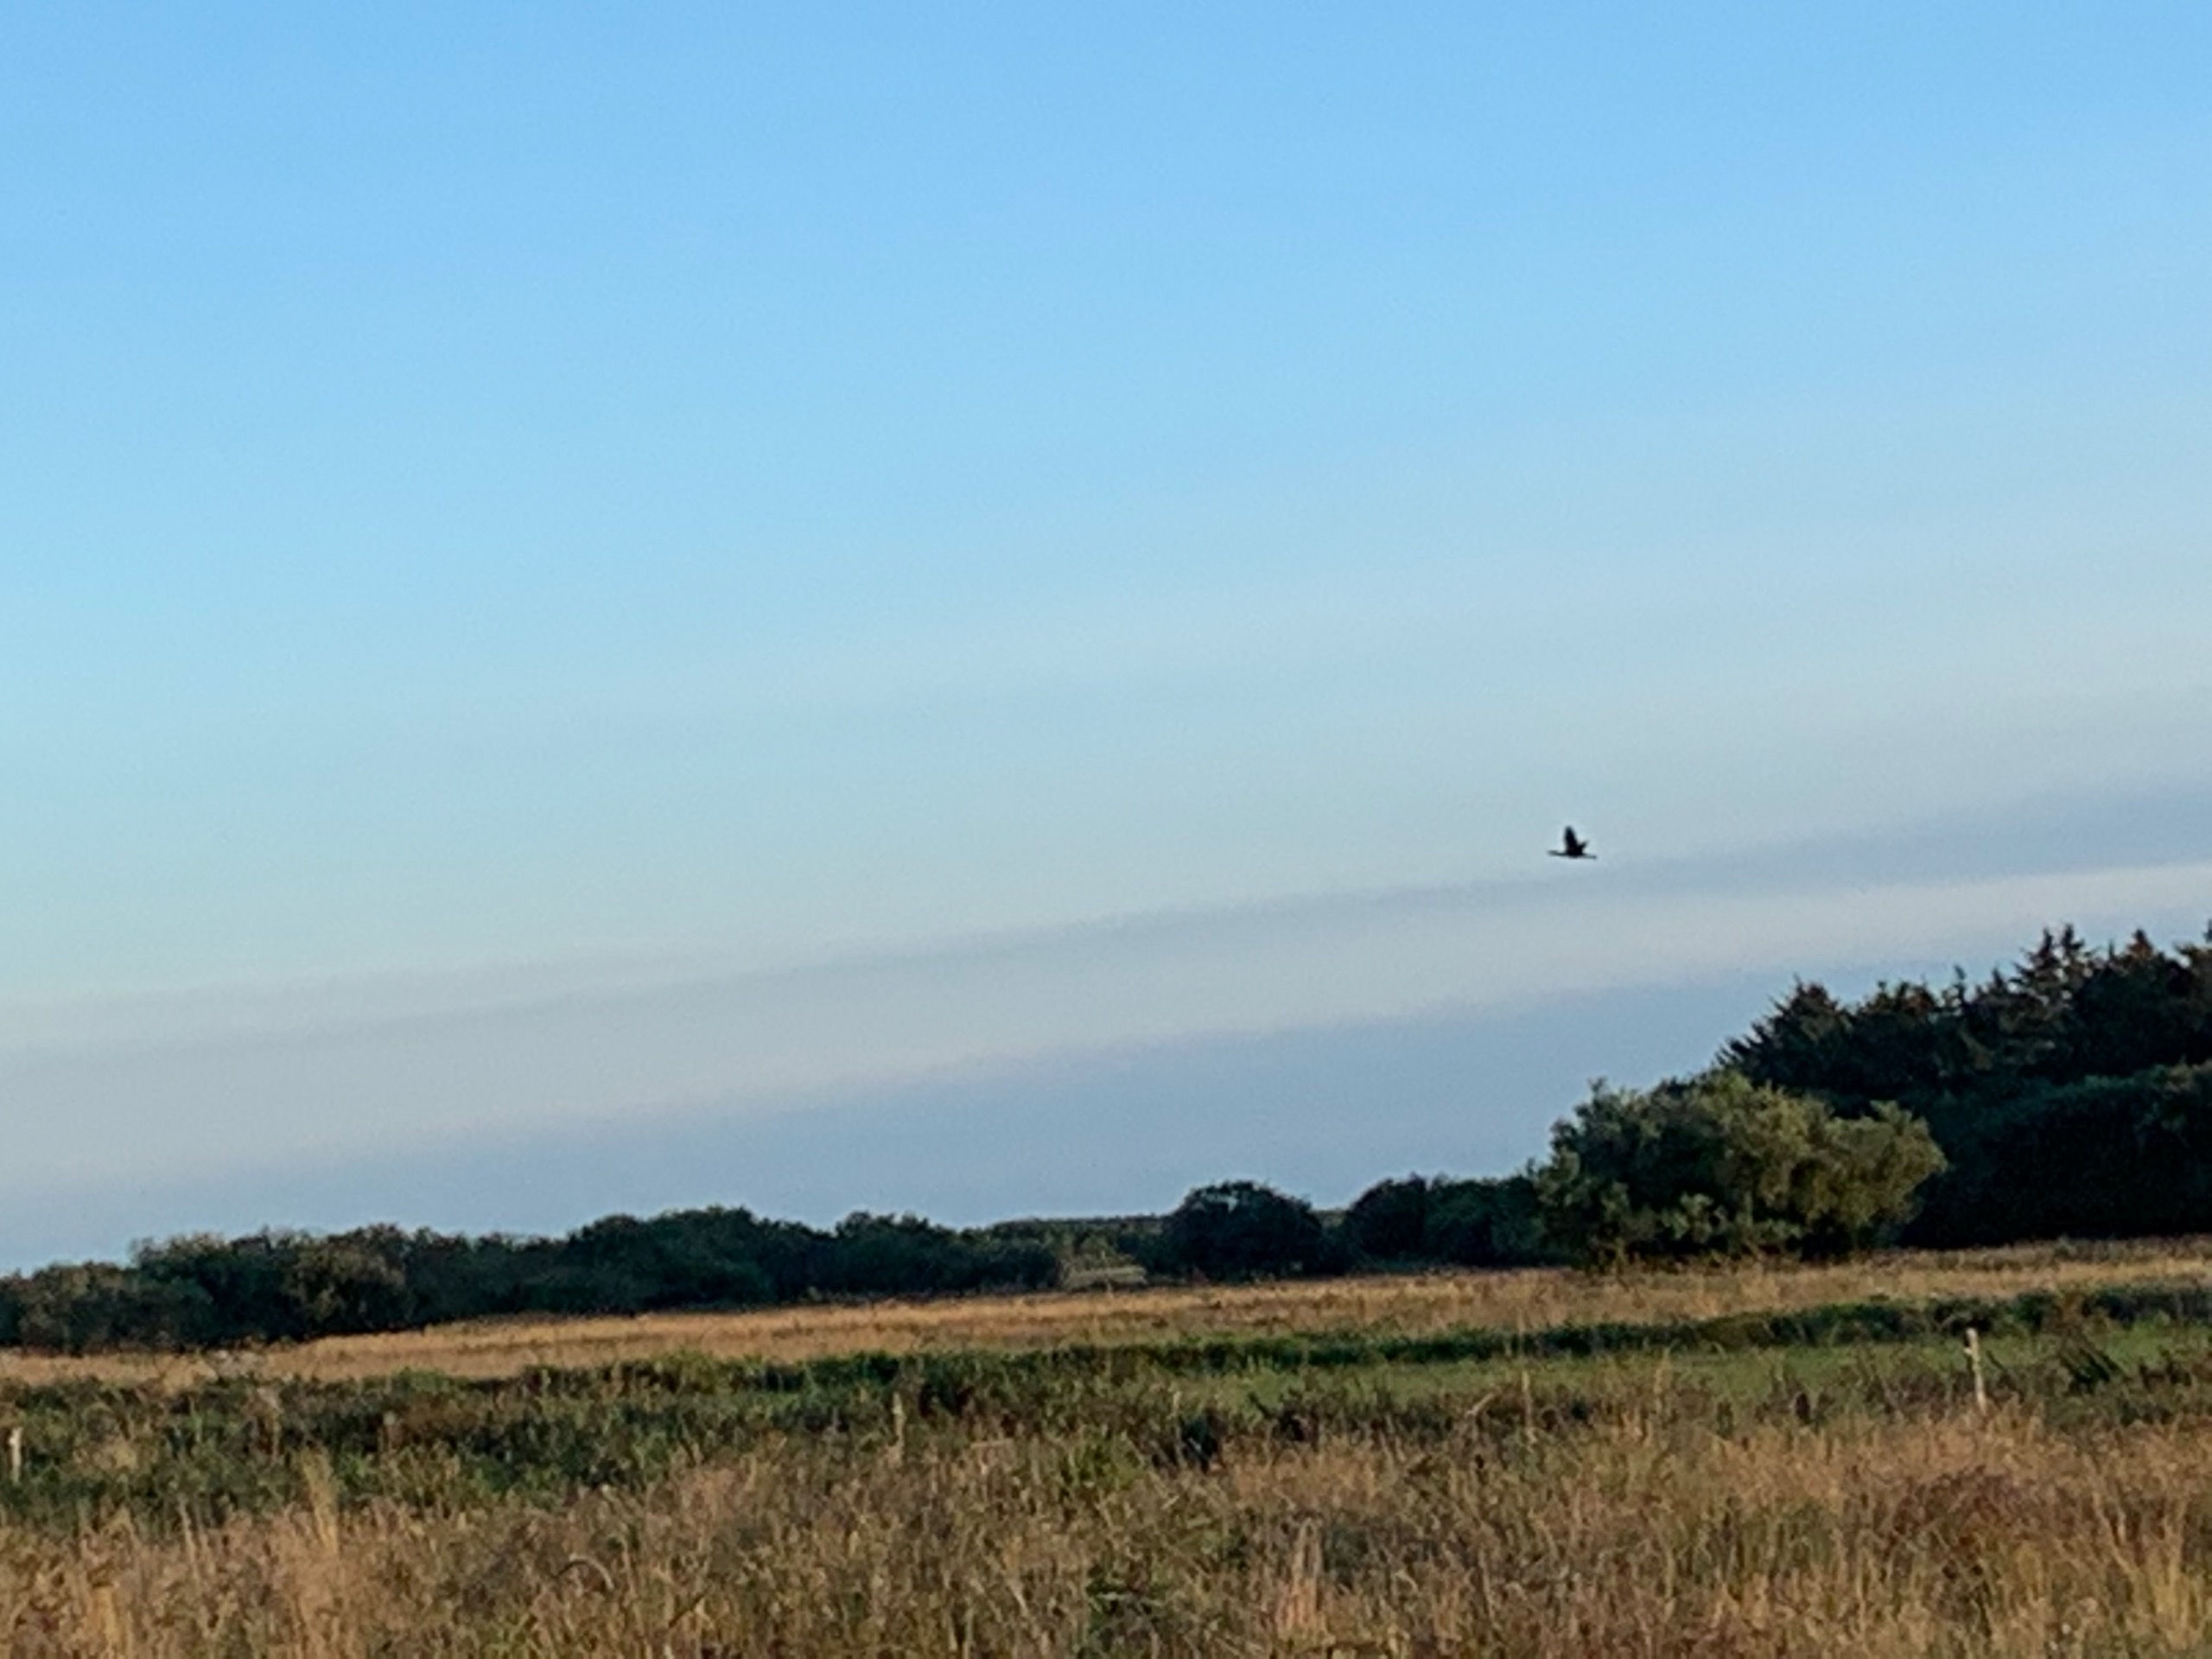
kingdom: Animalia
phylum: Chordata
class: Aves
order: Suliformes
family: Phalacrocoracidae
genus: Phalacrocorax
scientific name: Phalacrocorax carbo
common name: Skarv
